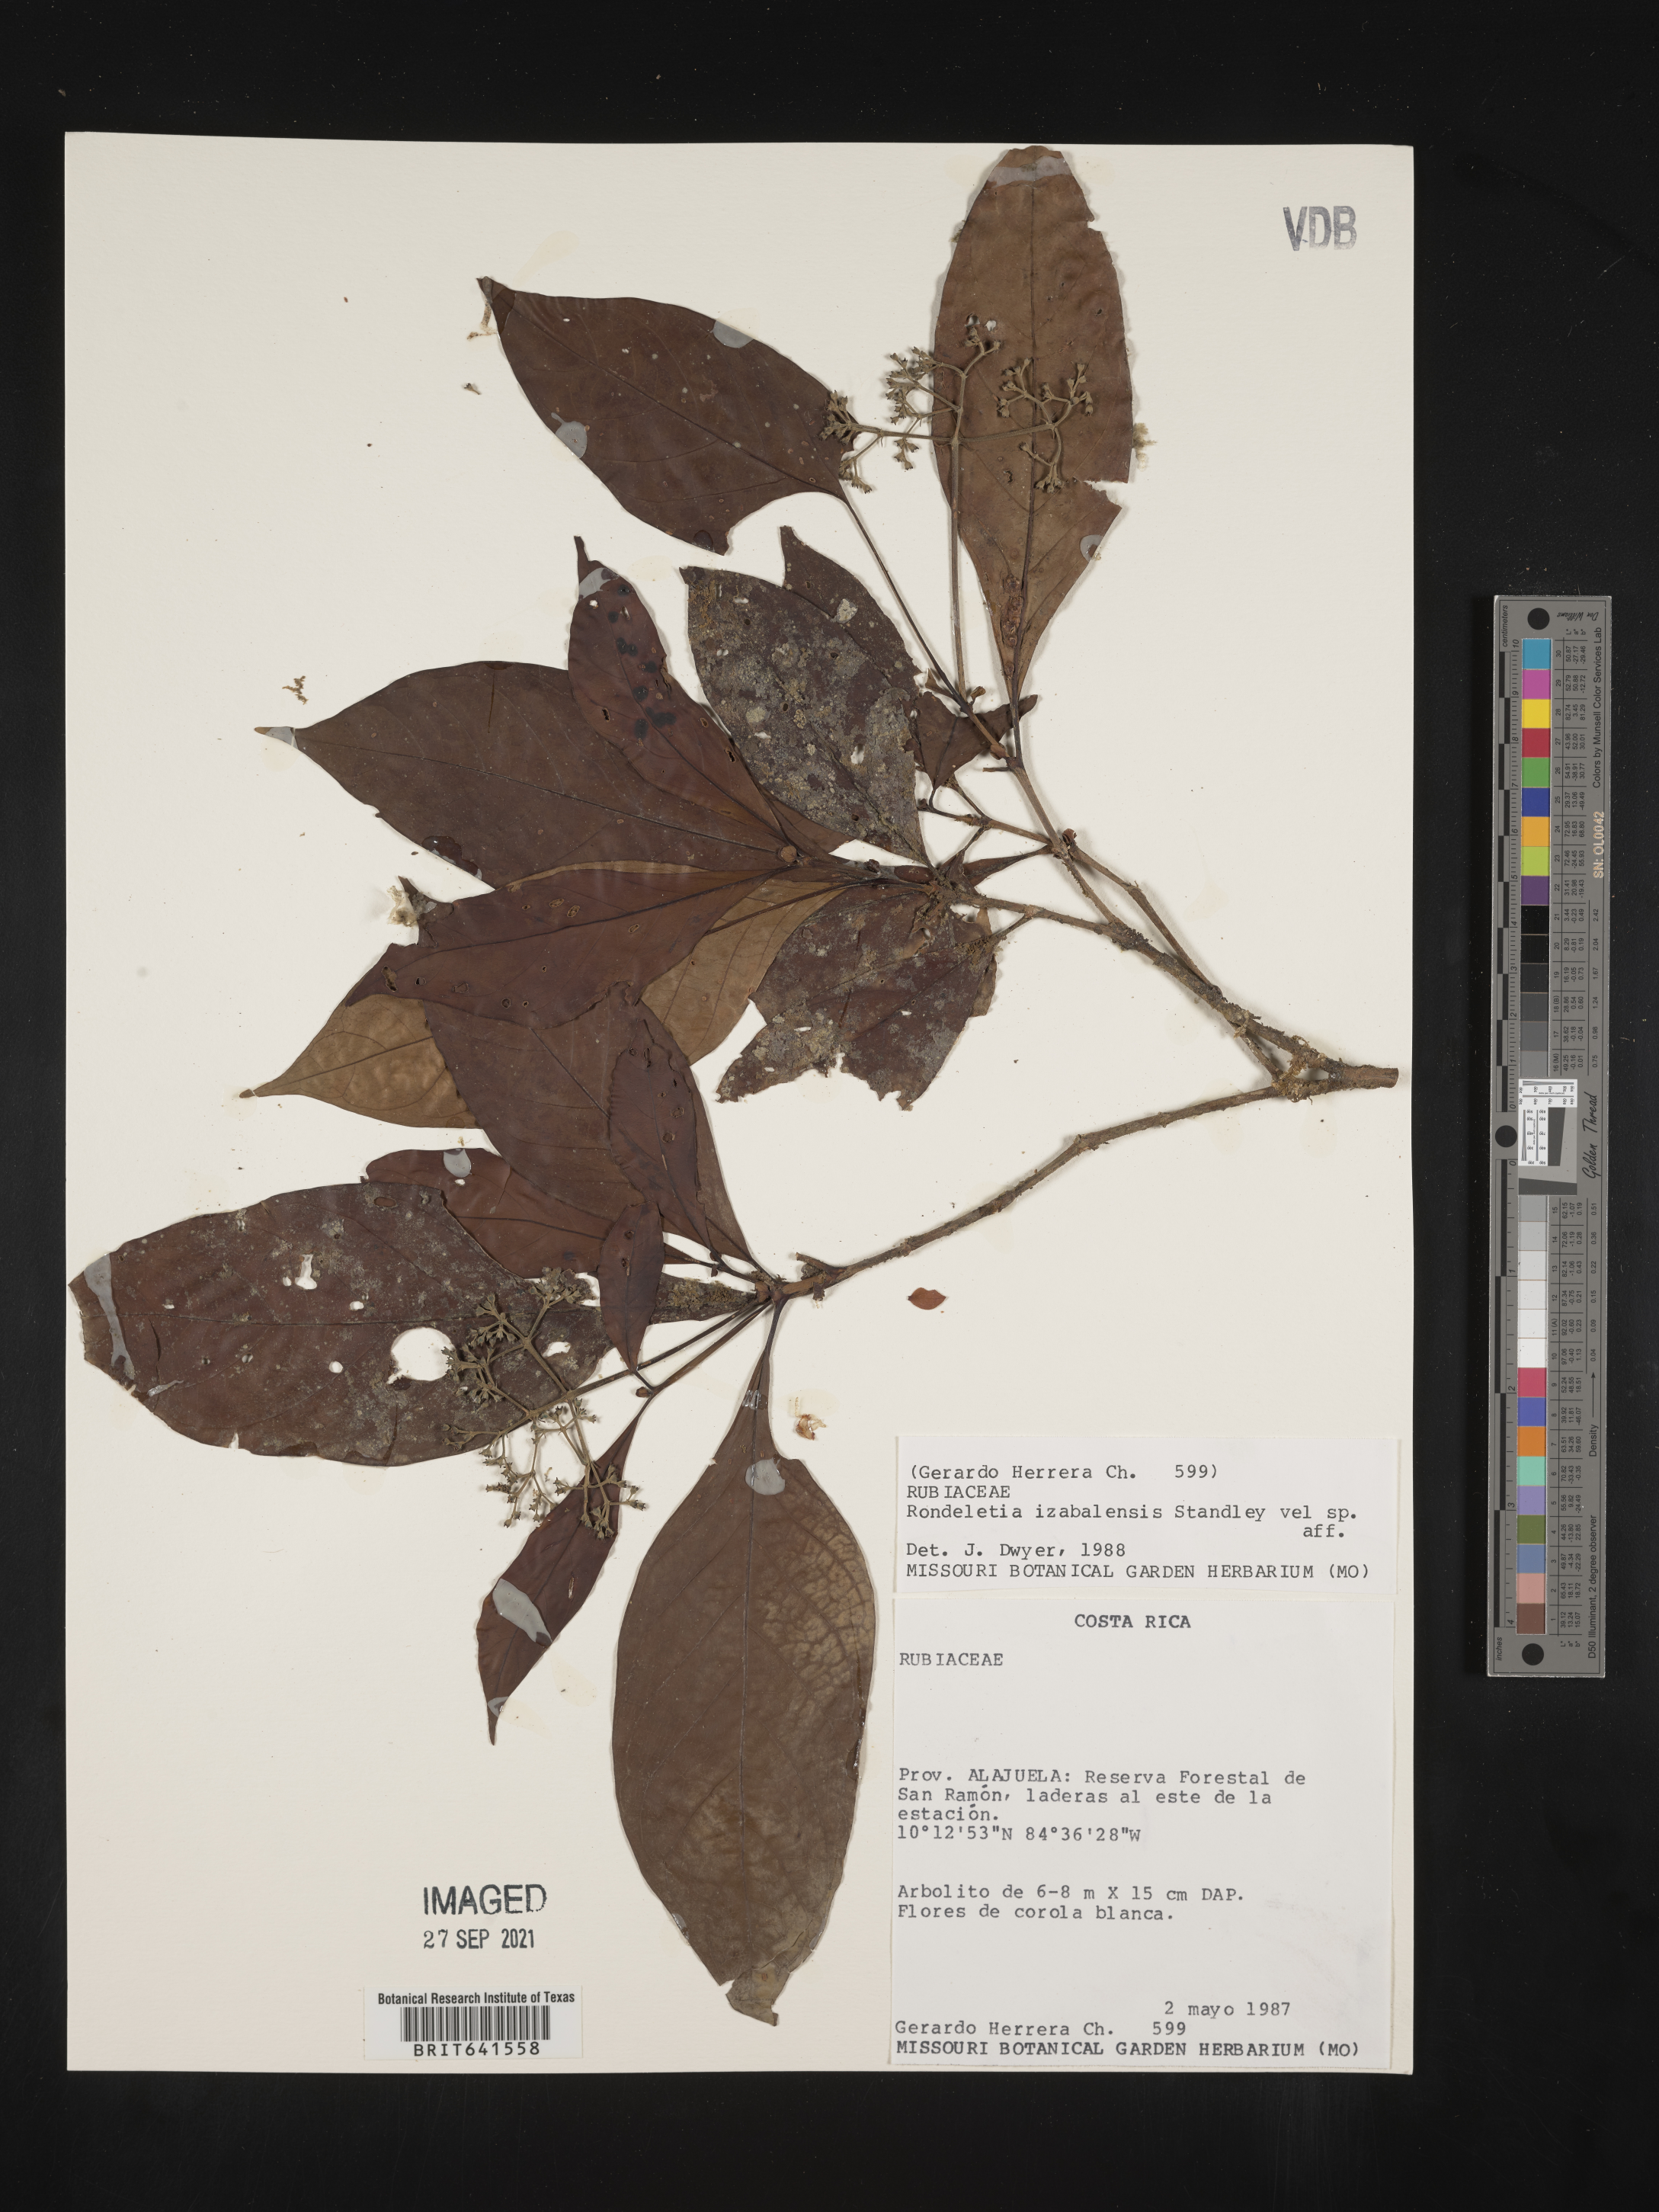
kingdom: Plantae
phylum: Tracheophyta
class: Magnoliopsida
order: Gentianales
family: Rubiaceae
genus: Rondeletia
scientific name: Rondeletia
